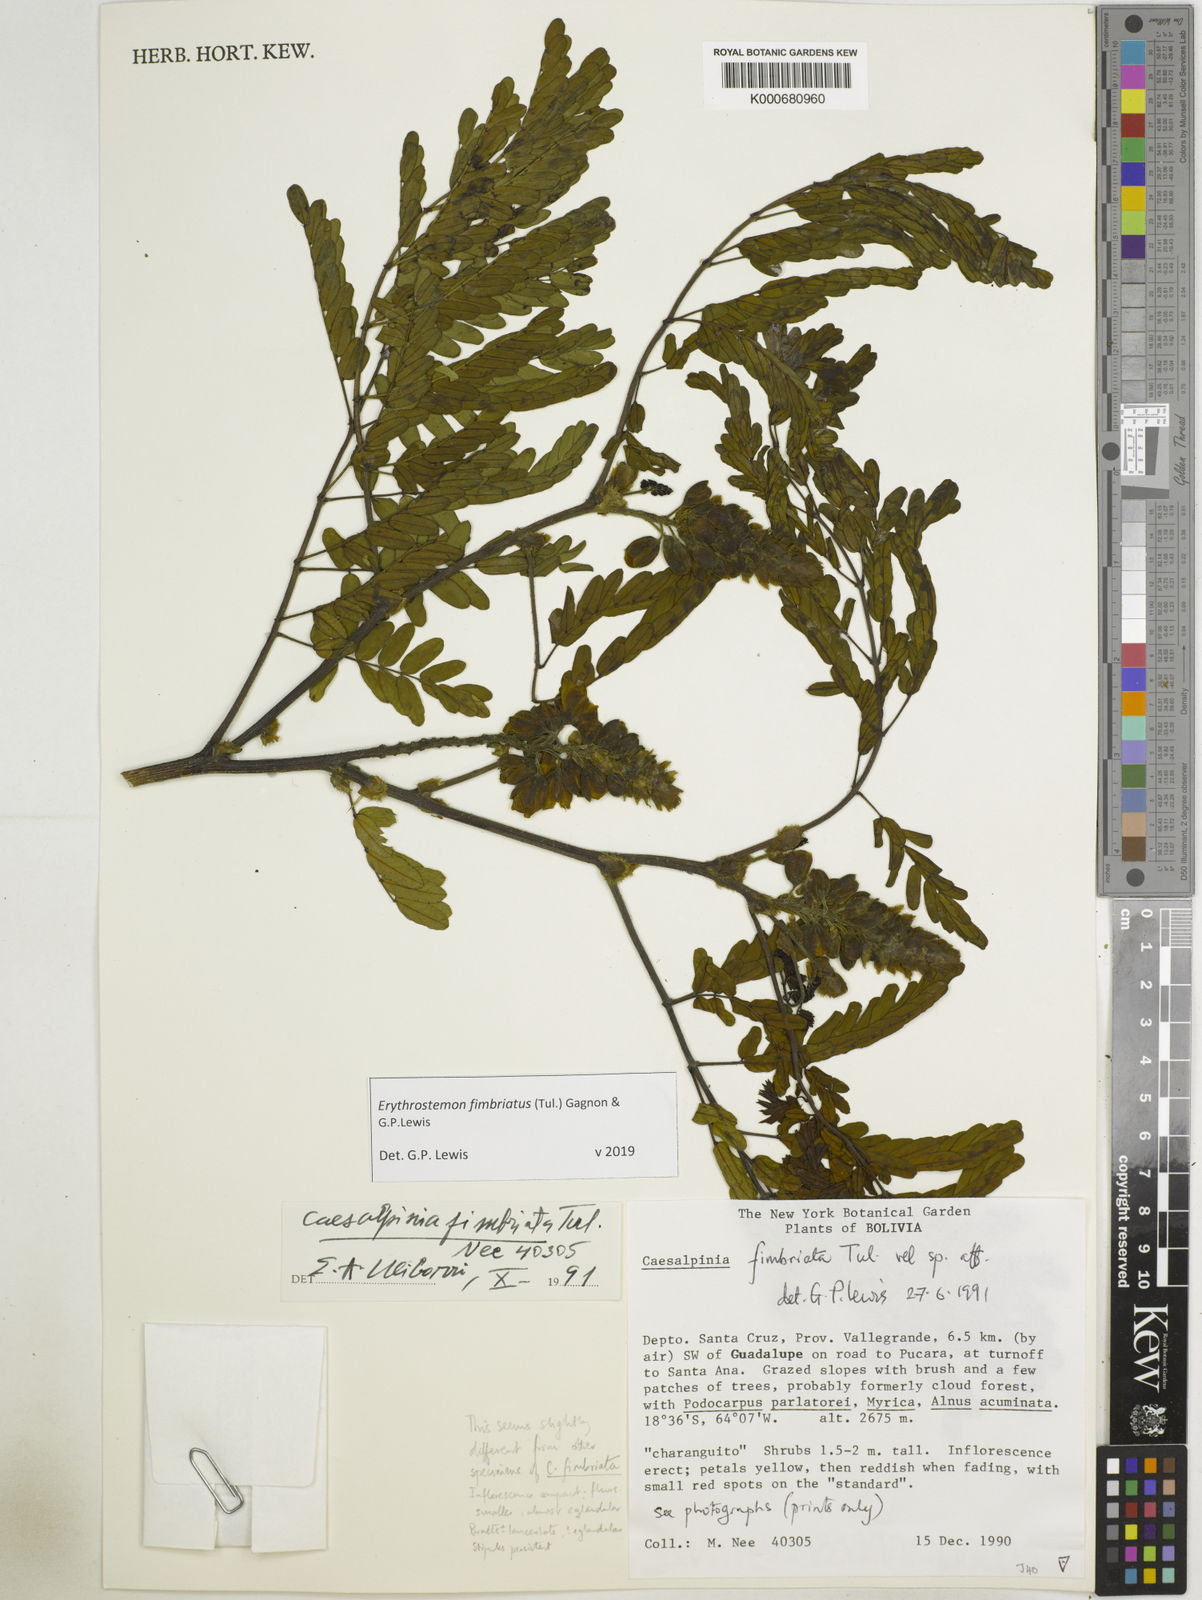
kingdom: Plantae
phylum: Tracheophyta
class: Magnoliopsida
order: Fabales
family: Fabaceae
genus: Erythrostemon
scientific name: Erythrostemon fimbriatus
